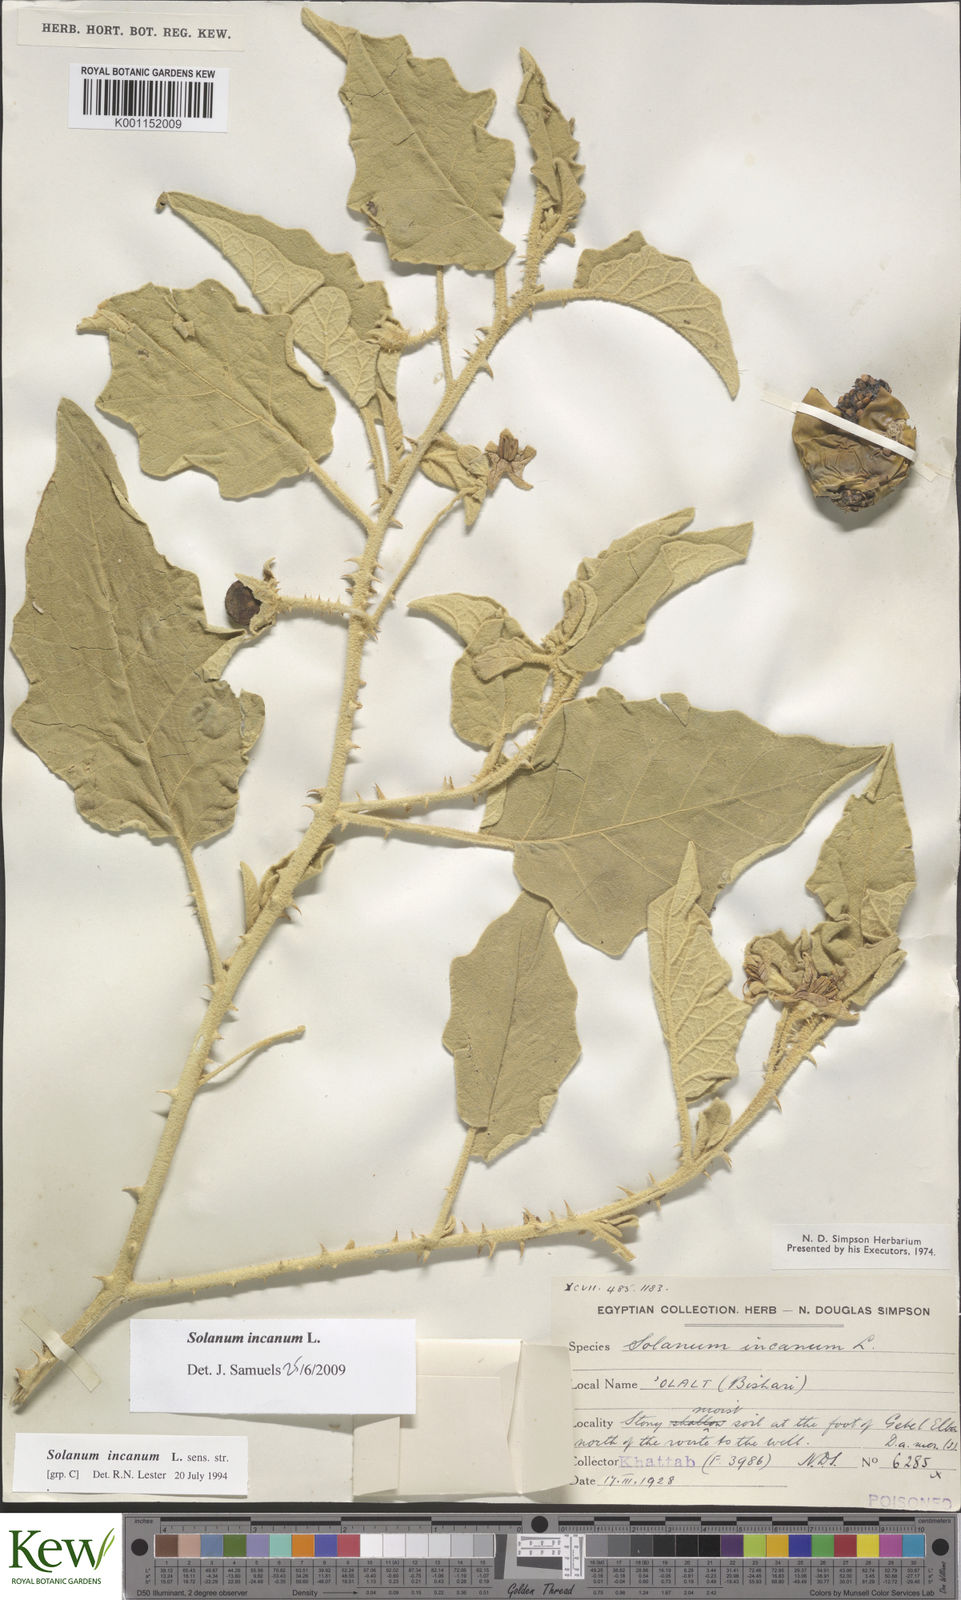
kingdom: Plantae
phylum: Tracheophyta
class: Magnoliopsida
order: Solanales
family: Solanaceae
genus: Solanum
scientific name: Solanum incanum
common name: Bitter apple
